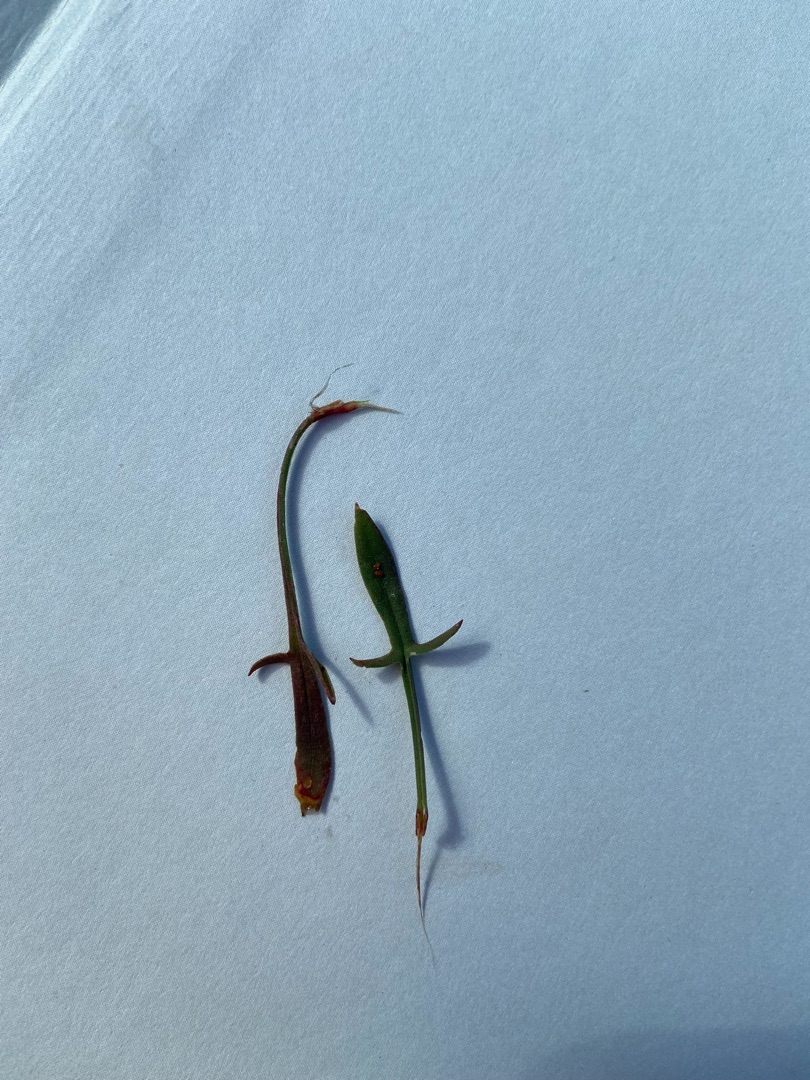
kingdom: Plantae
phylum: Tracheophyta
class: Magnoliopsida
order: Caryophyllales
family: Polygonaceae
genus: Rumex
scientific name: Rumex acetosella
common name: Rødknæ
